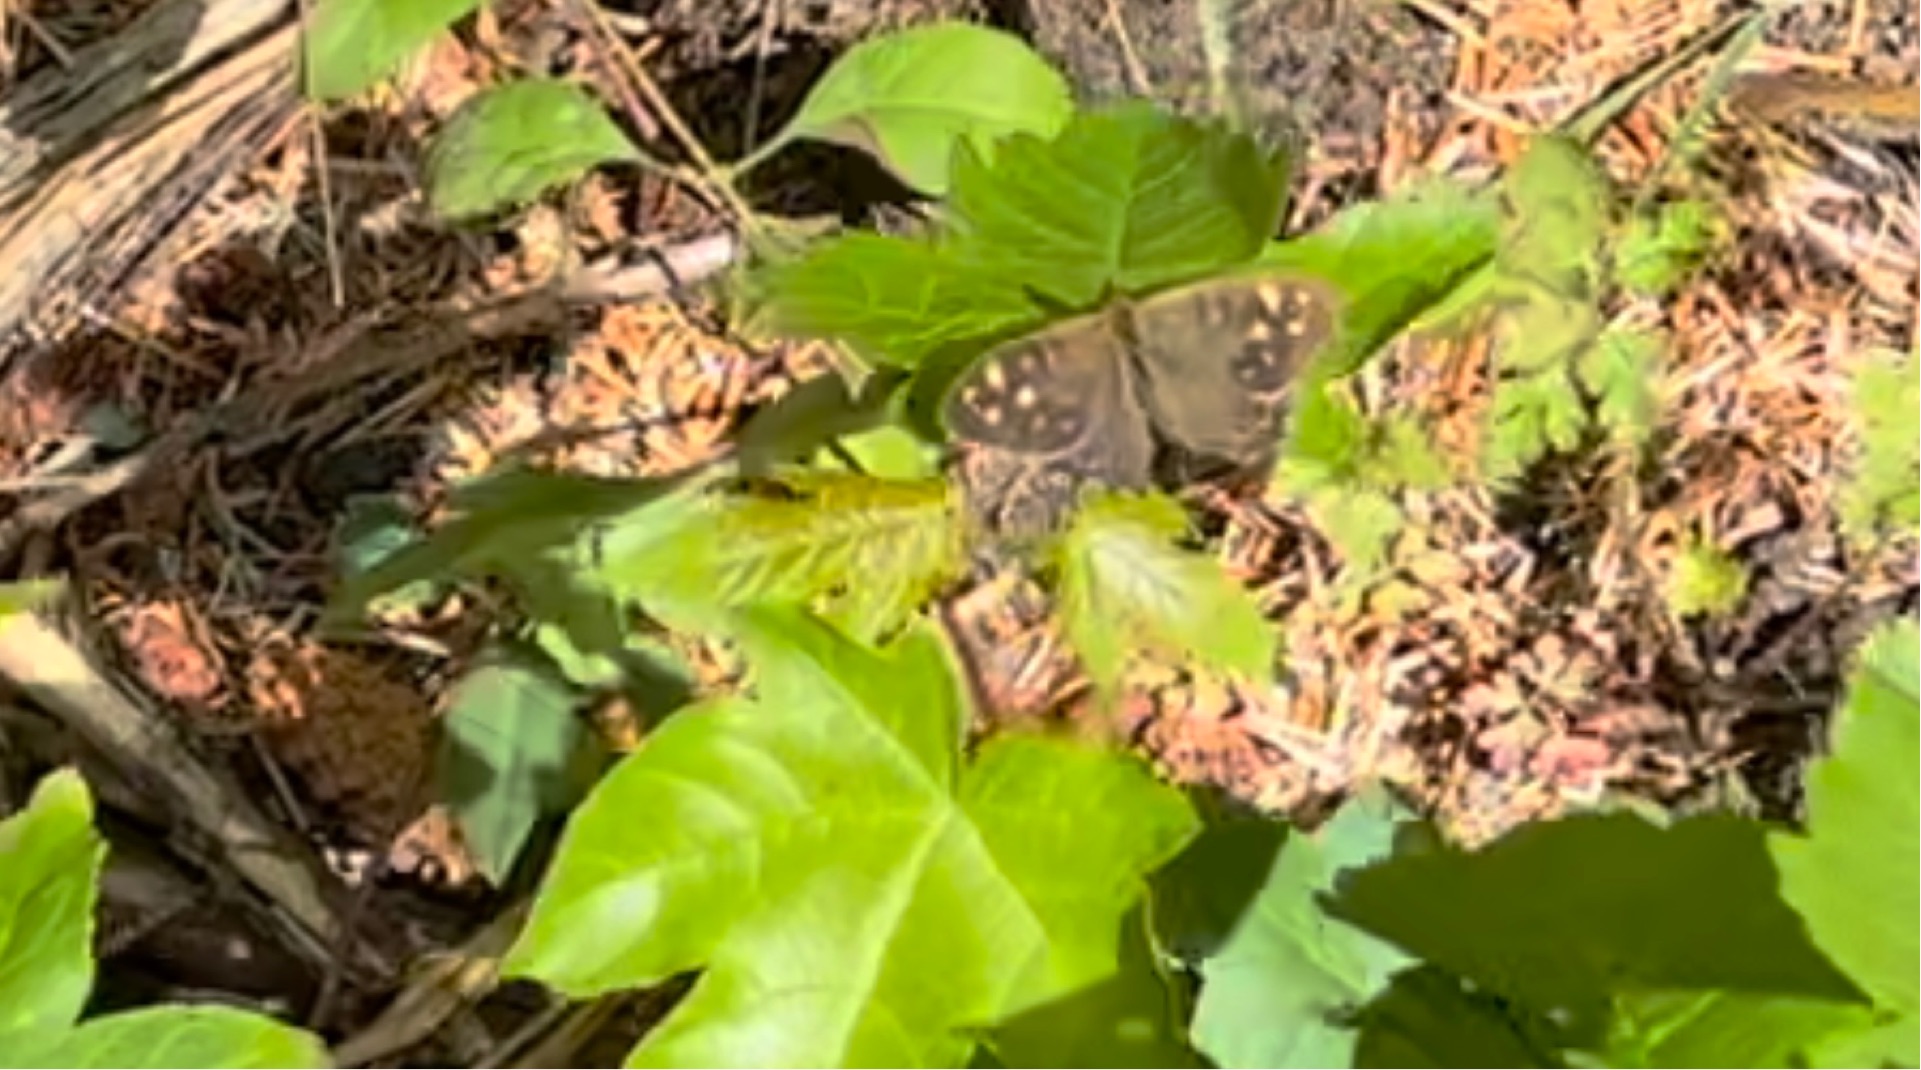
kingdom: Animalia
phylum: Arthropoda
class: Insecta
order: Lepidoptera
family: Nymphalidae
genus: Pararge
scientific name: Pararge aegeria
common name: Skovrandøje
